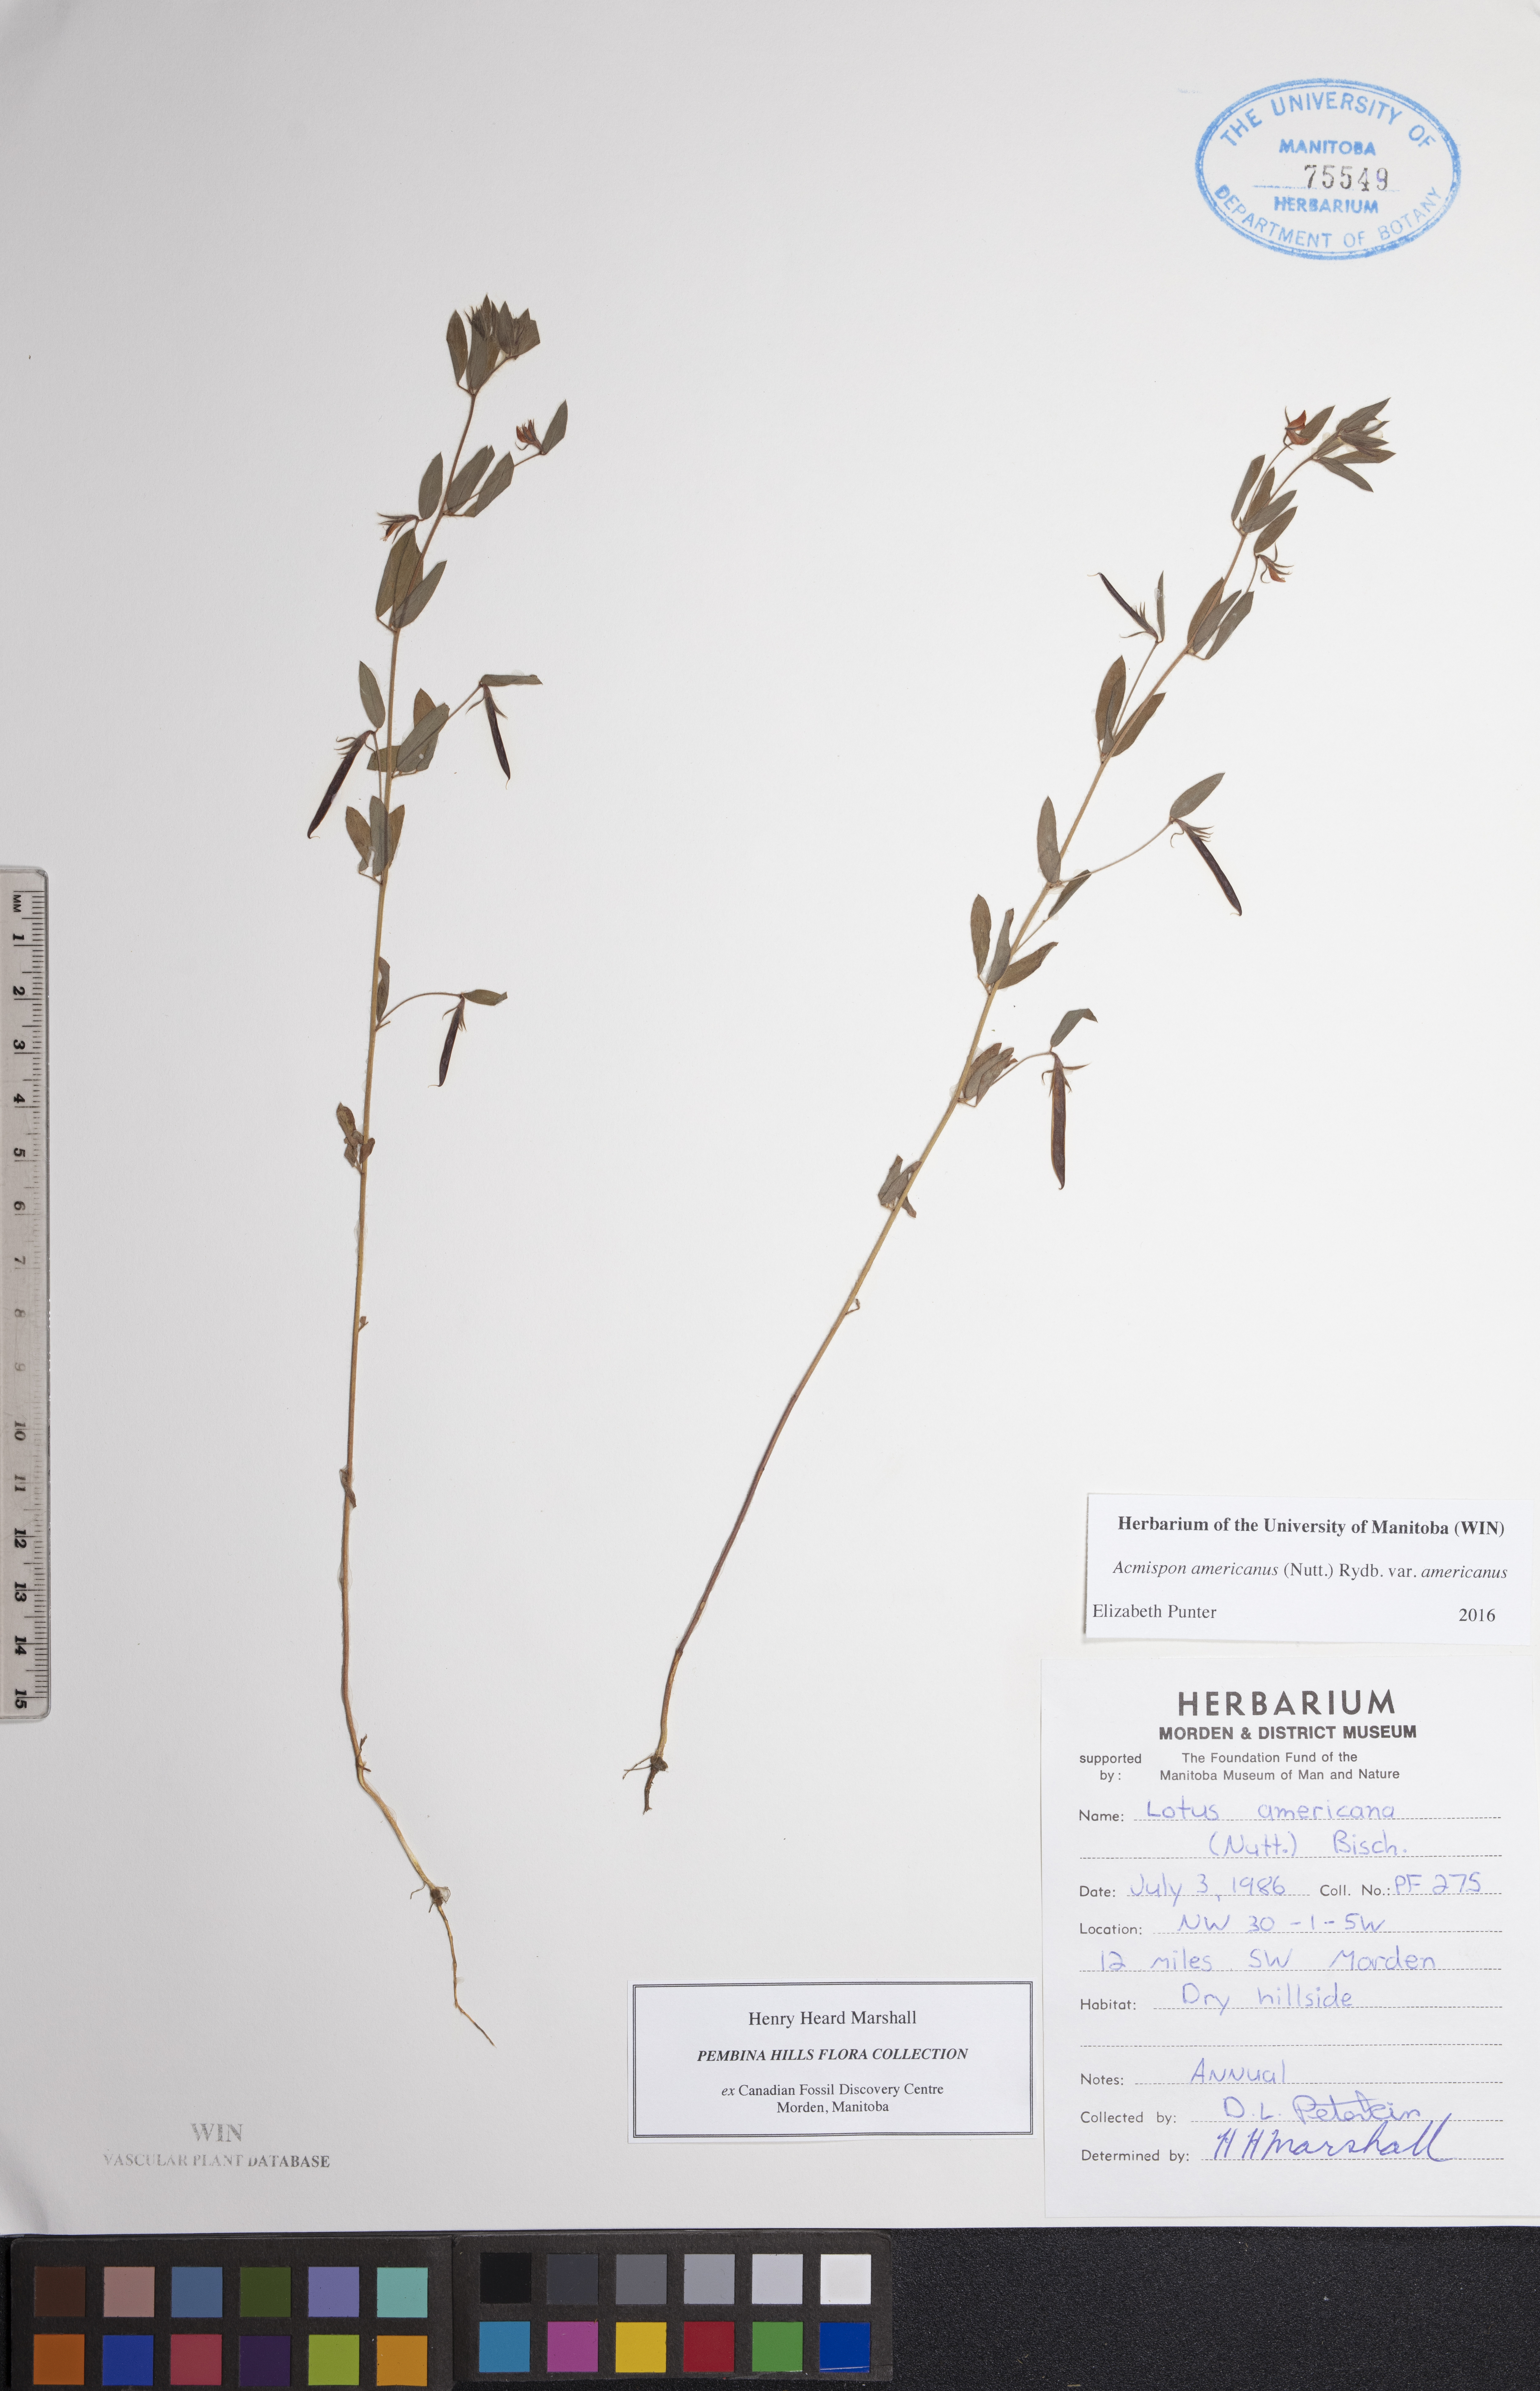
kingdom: Plantae
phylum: Tracheophyta
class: Magnoliopsida
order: Fabales
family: Fabaceae
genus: Acmispon
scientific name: Acmispon americanus
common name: American bird's-foot trefoil
